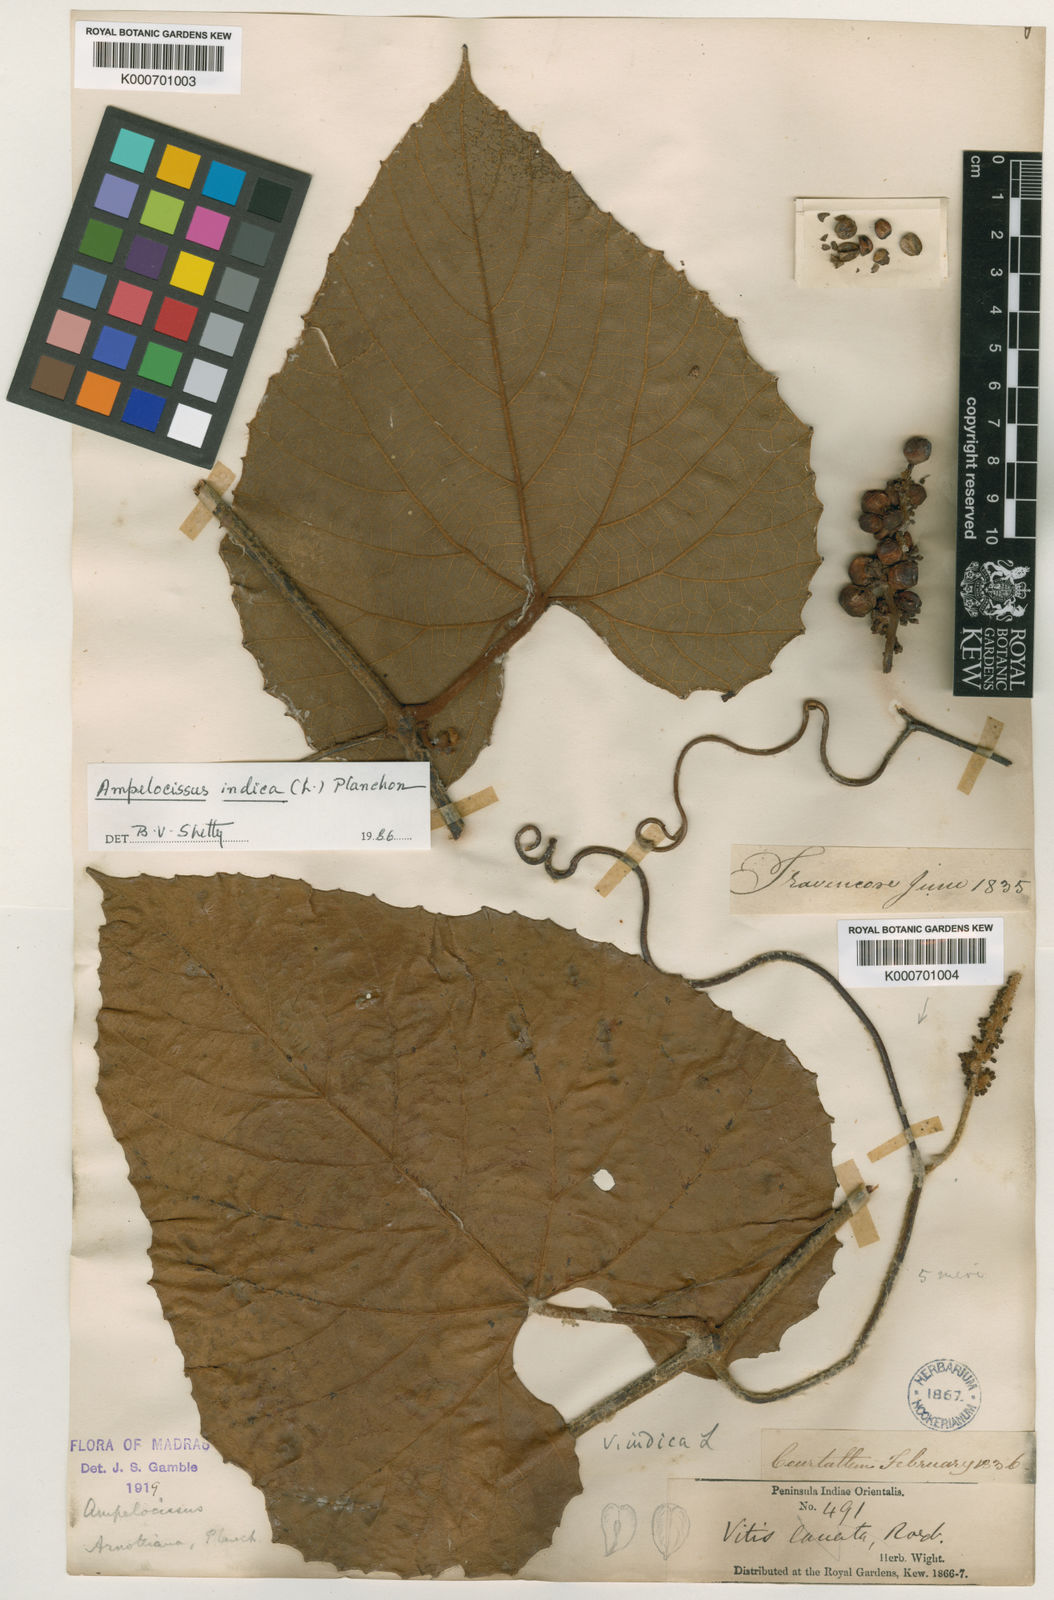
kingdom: Plantae
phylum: Tracheophyta
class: Magnoliopsida
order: Vitales
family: Vitaceae
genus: Ampelocissus
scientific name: Ampelocissus indica
